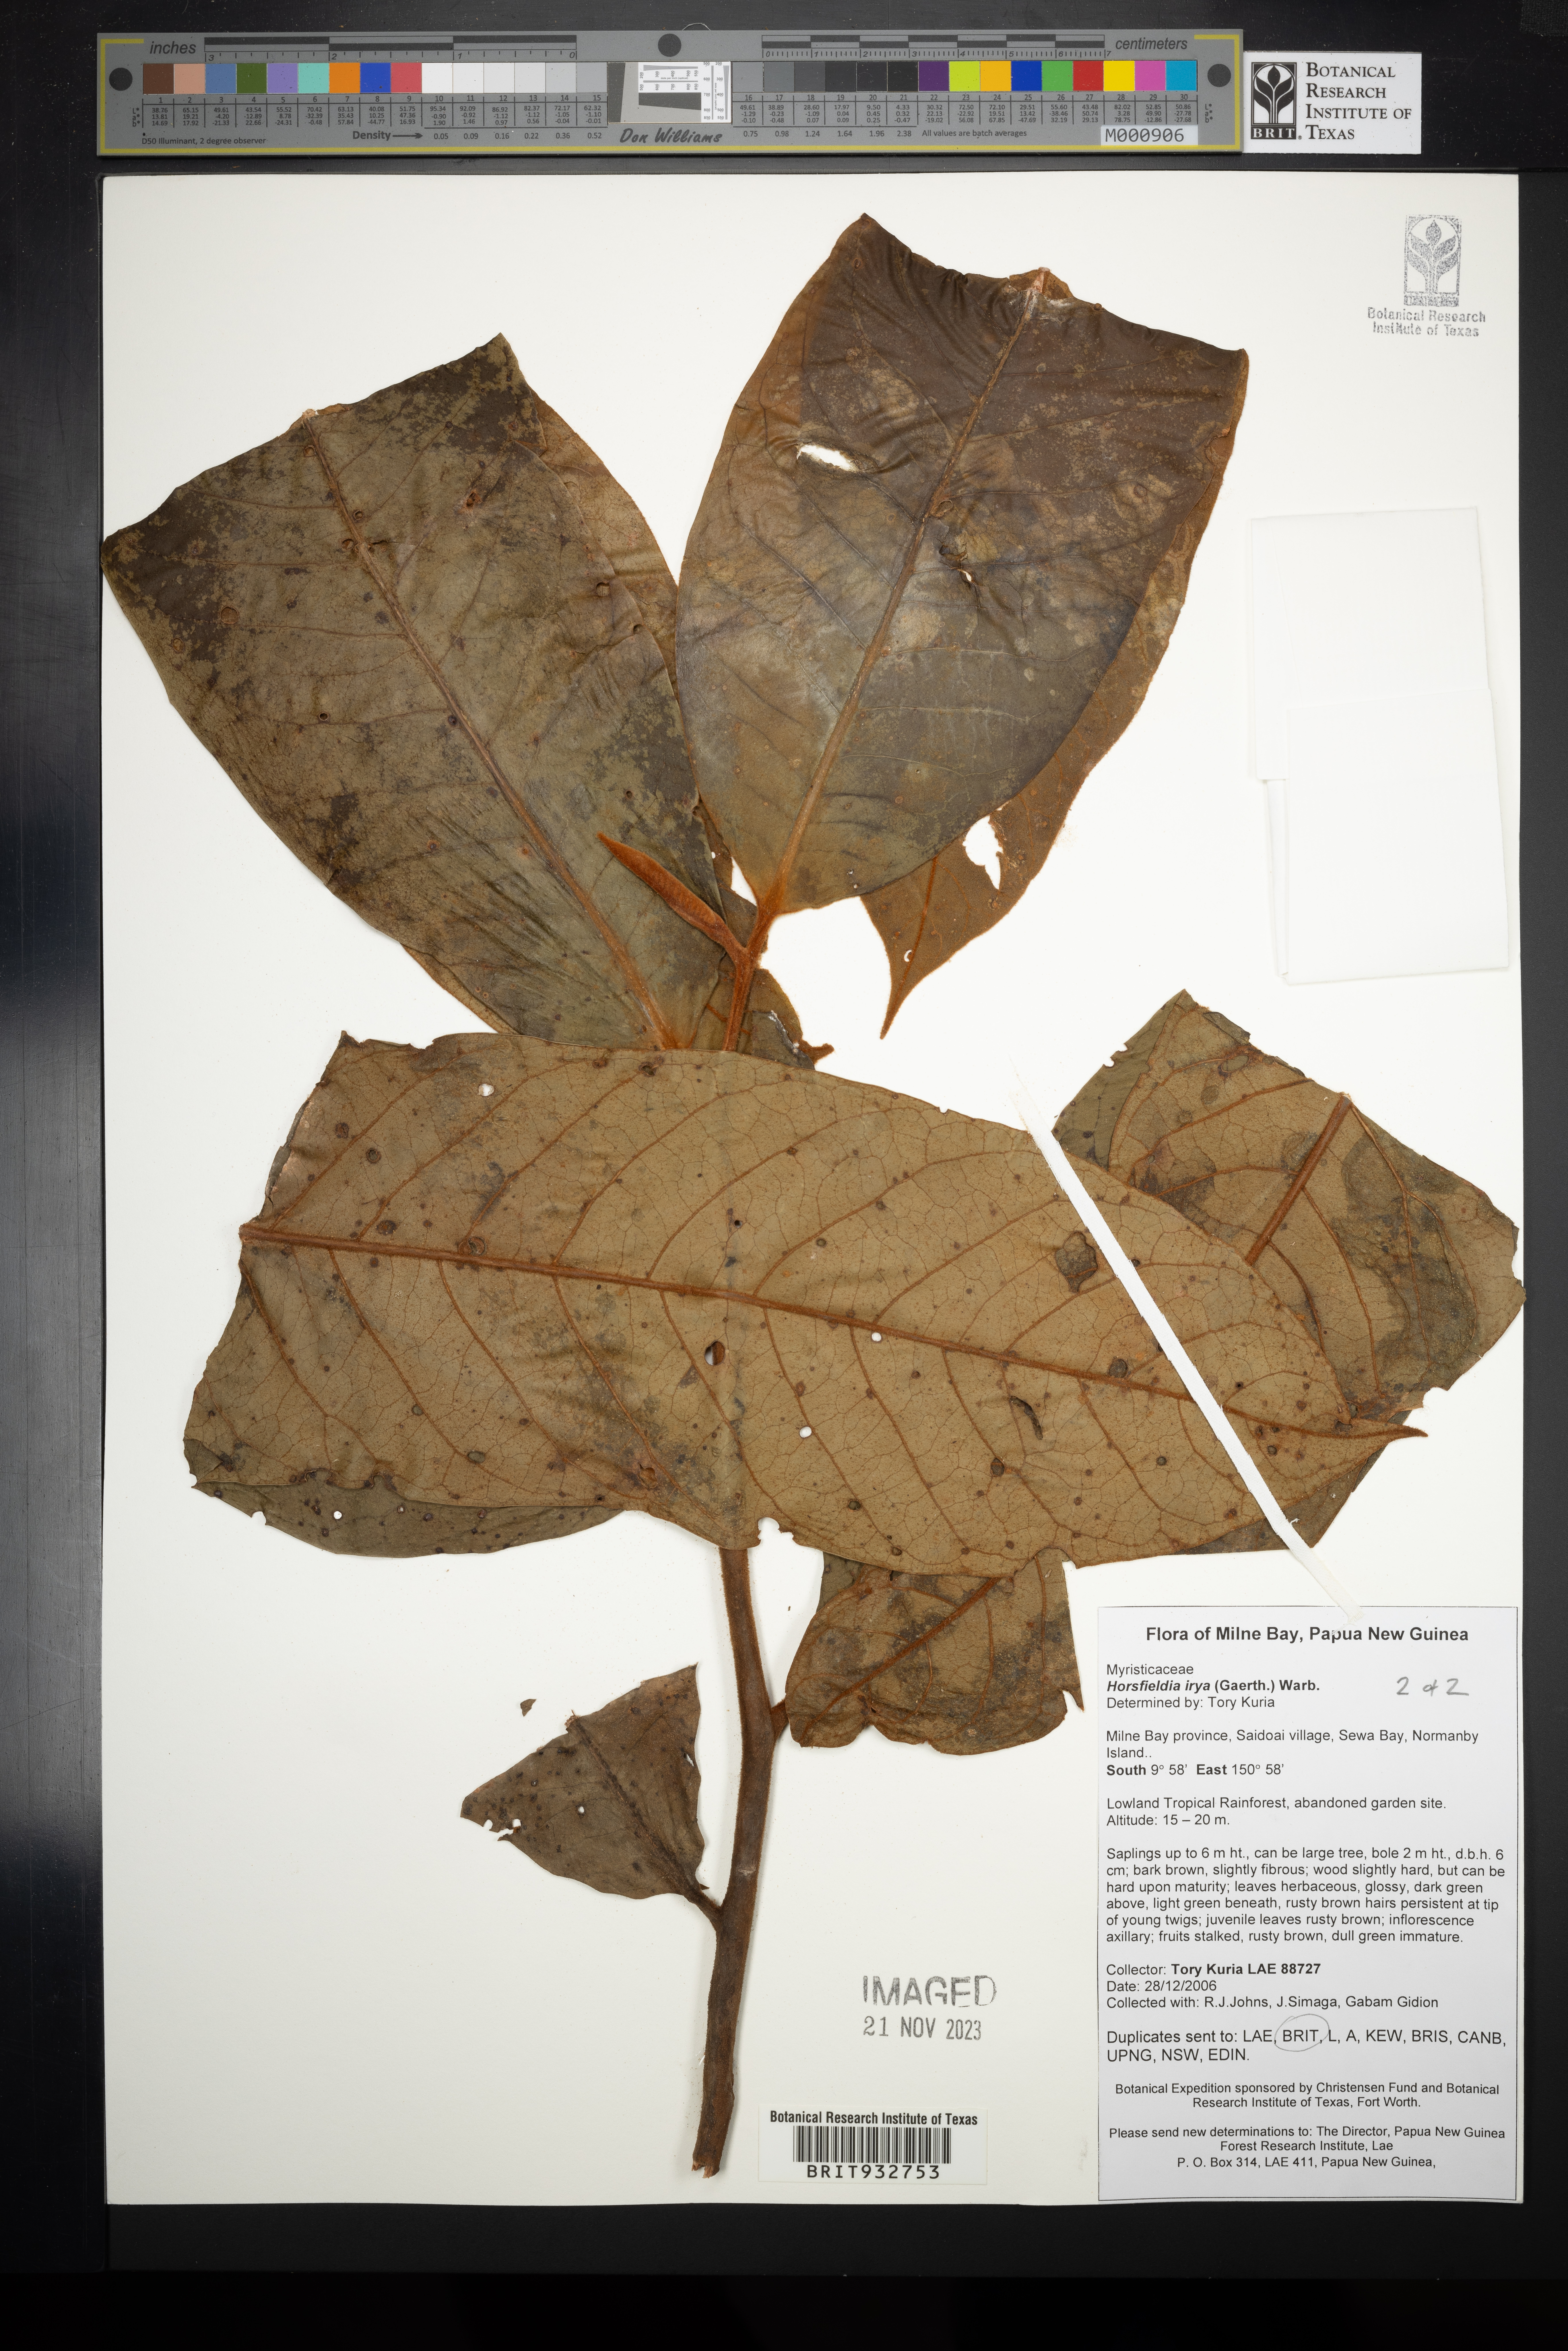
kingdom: Plantae
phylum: Tracheophyta
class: Magnoliopsida
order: Magnoliales
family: Myristicaceae
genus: Horsfieldia
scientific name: Horsfieldia
